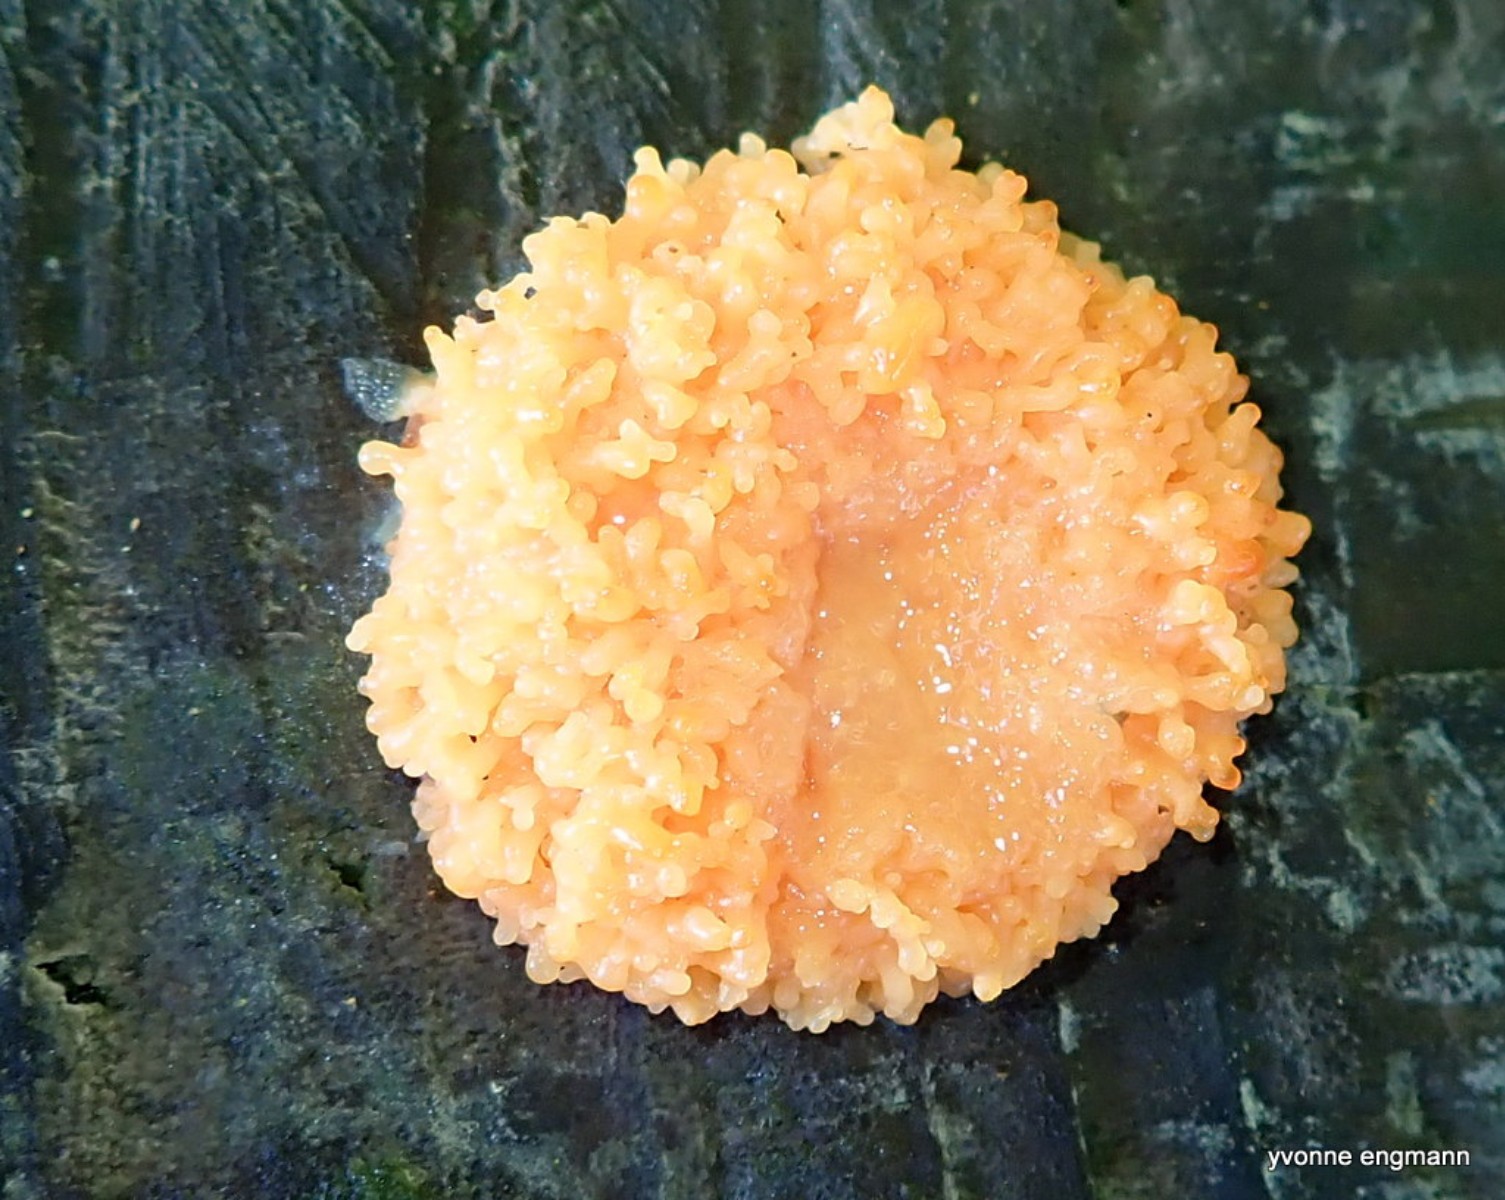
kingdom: Protozoa
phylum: Mycetozoa
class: Myxomycetes
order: Cribrariales
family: Tubiferaceae
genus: Tubifera
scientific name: Tubifera ferruginosa
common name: kanel-støvrør
